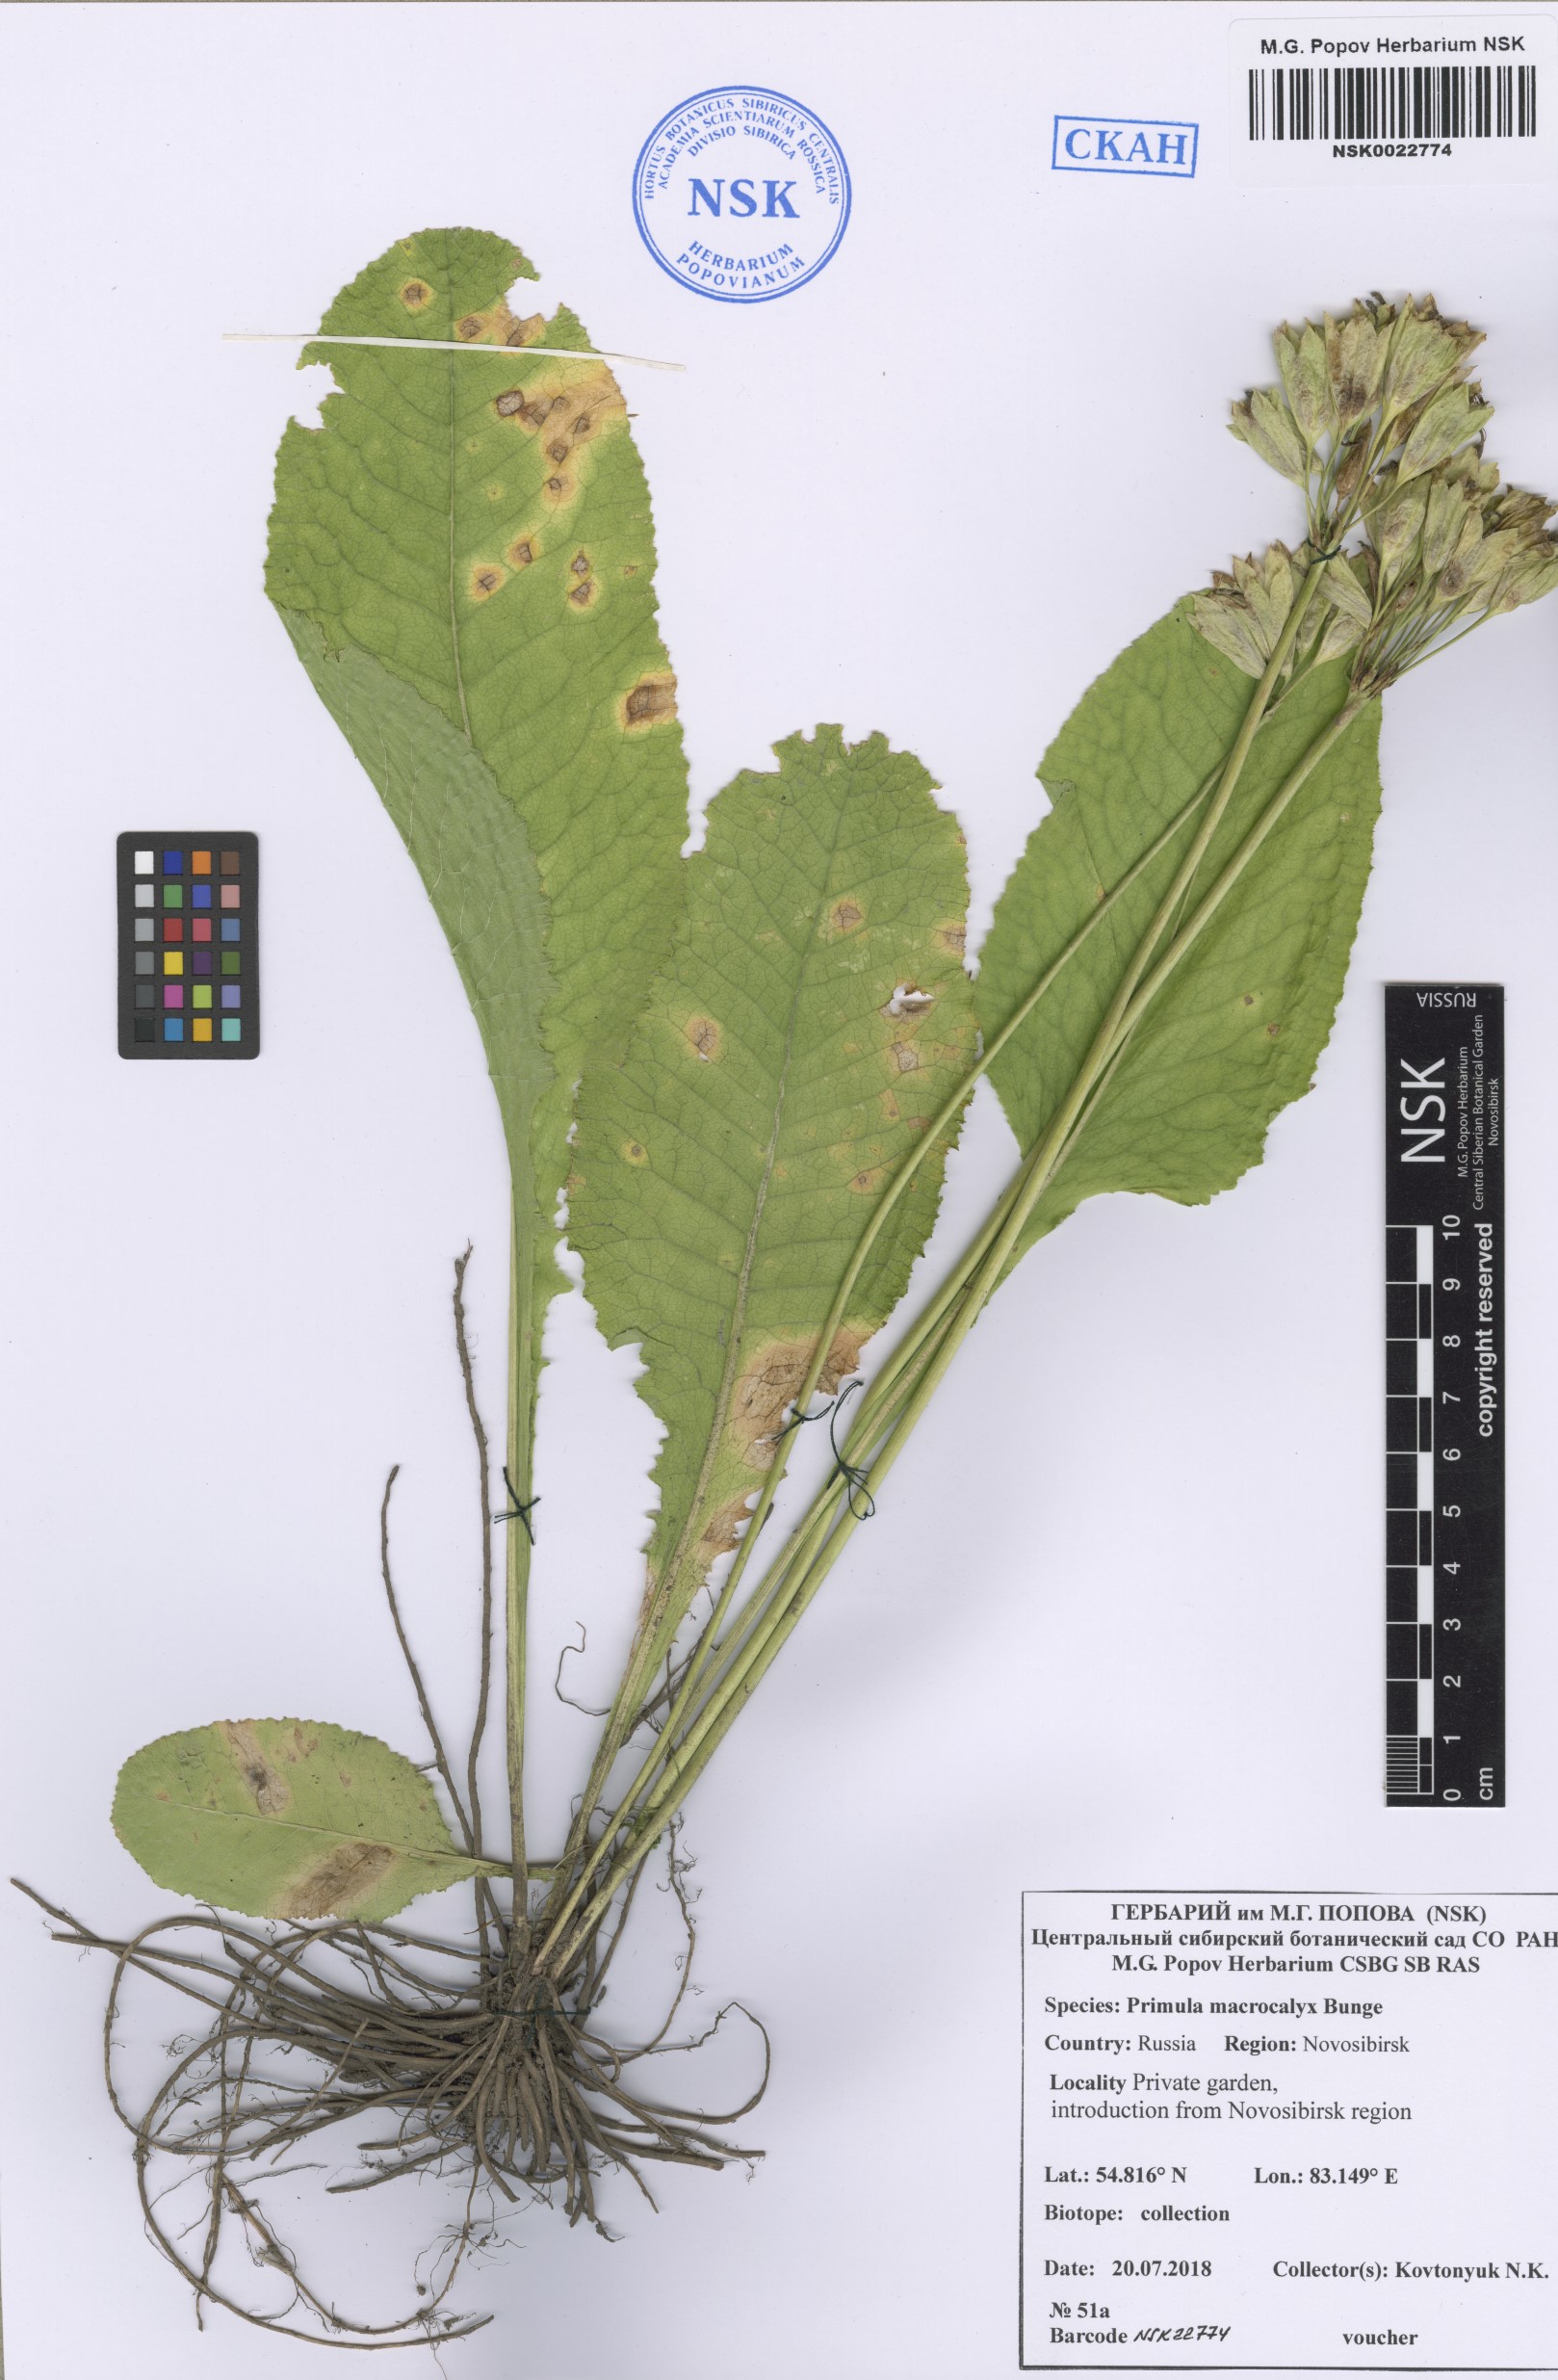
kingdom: Plantae
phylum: Tracheophyta
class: Magnoliopsida
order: Ericales
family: Primulaceae
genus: Primula
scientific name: Primula veris
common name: Cowslip
